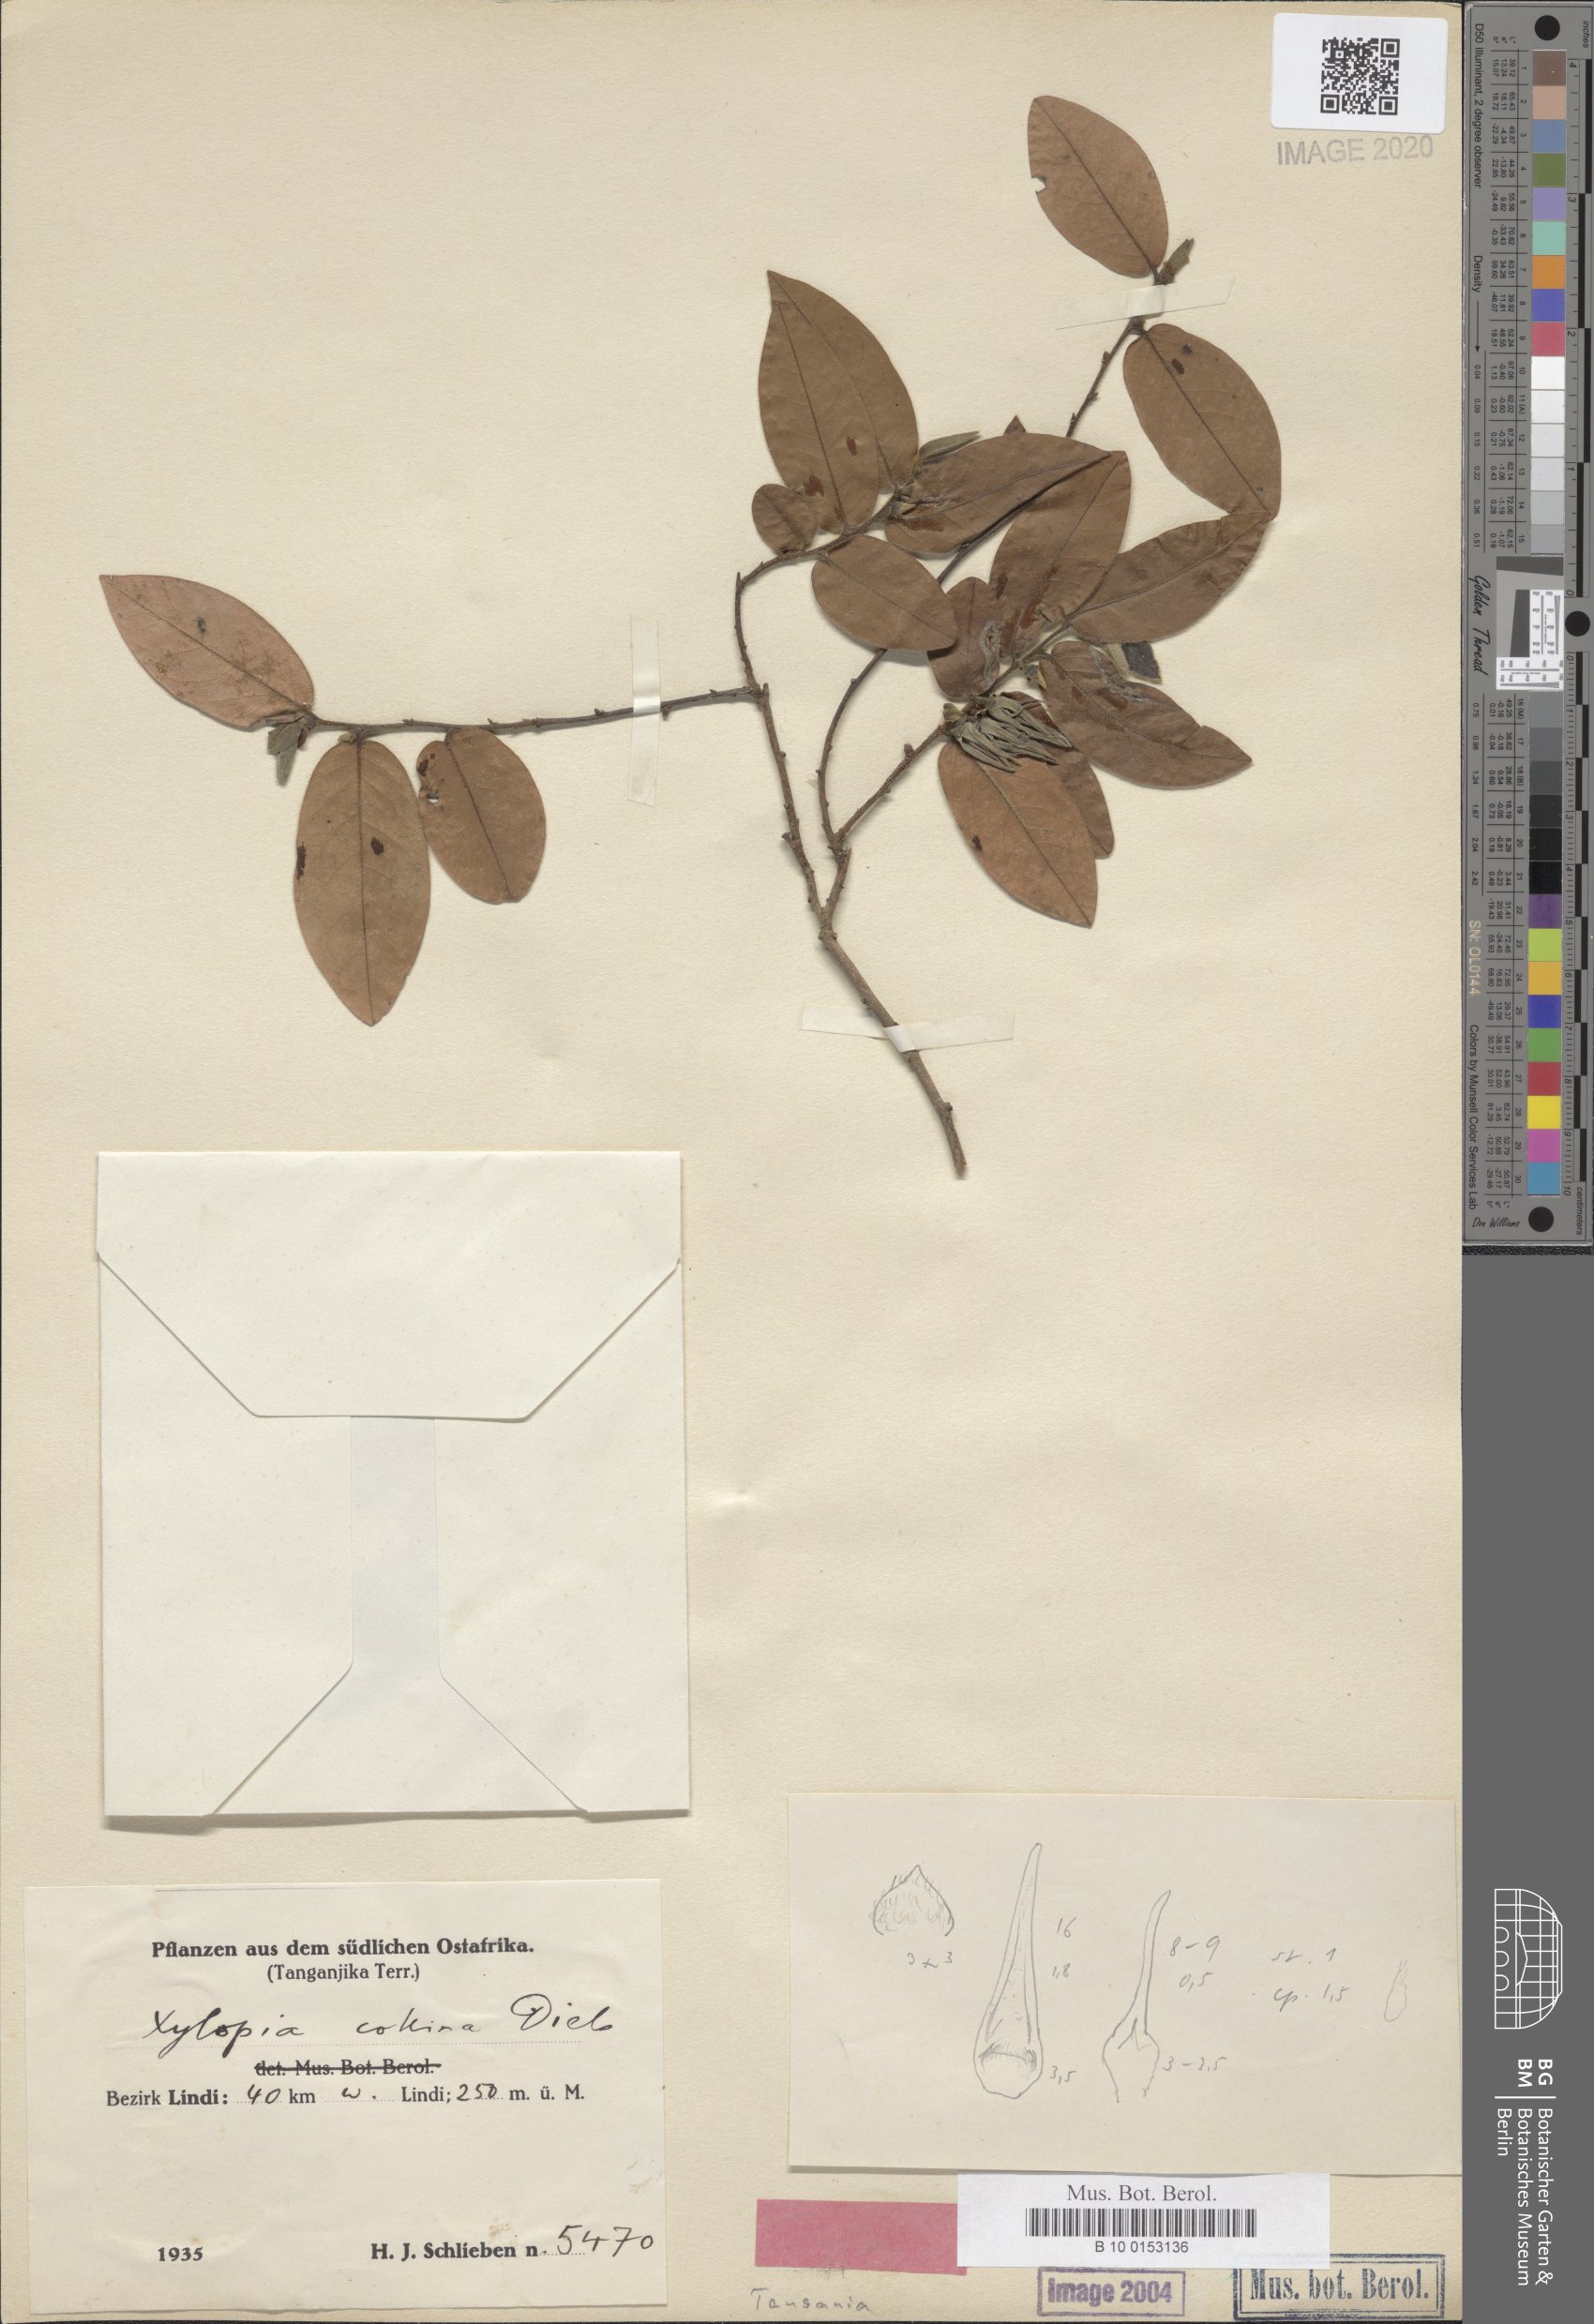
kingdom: Plantae
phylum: Tracheophyta
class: Magnoliopsida
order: Magnoliales
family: Annonaceae
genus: Xylopia
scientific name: Xylopia collina
